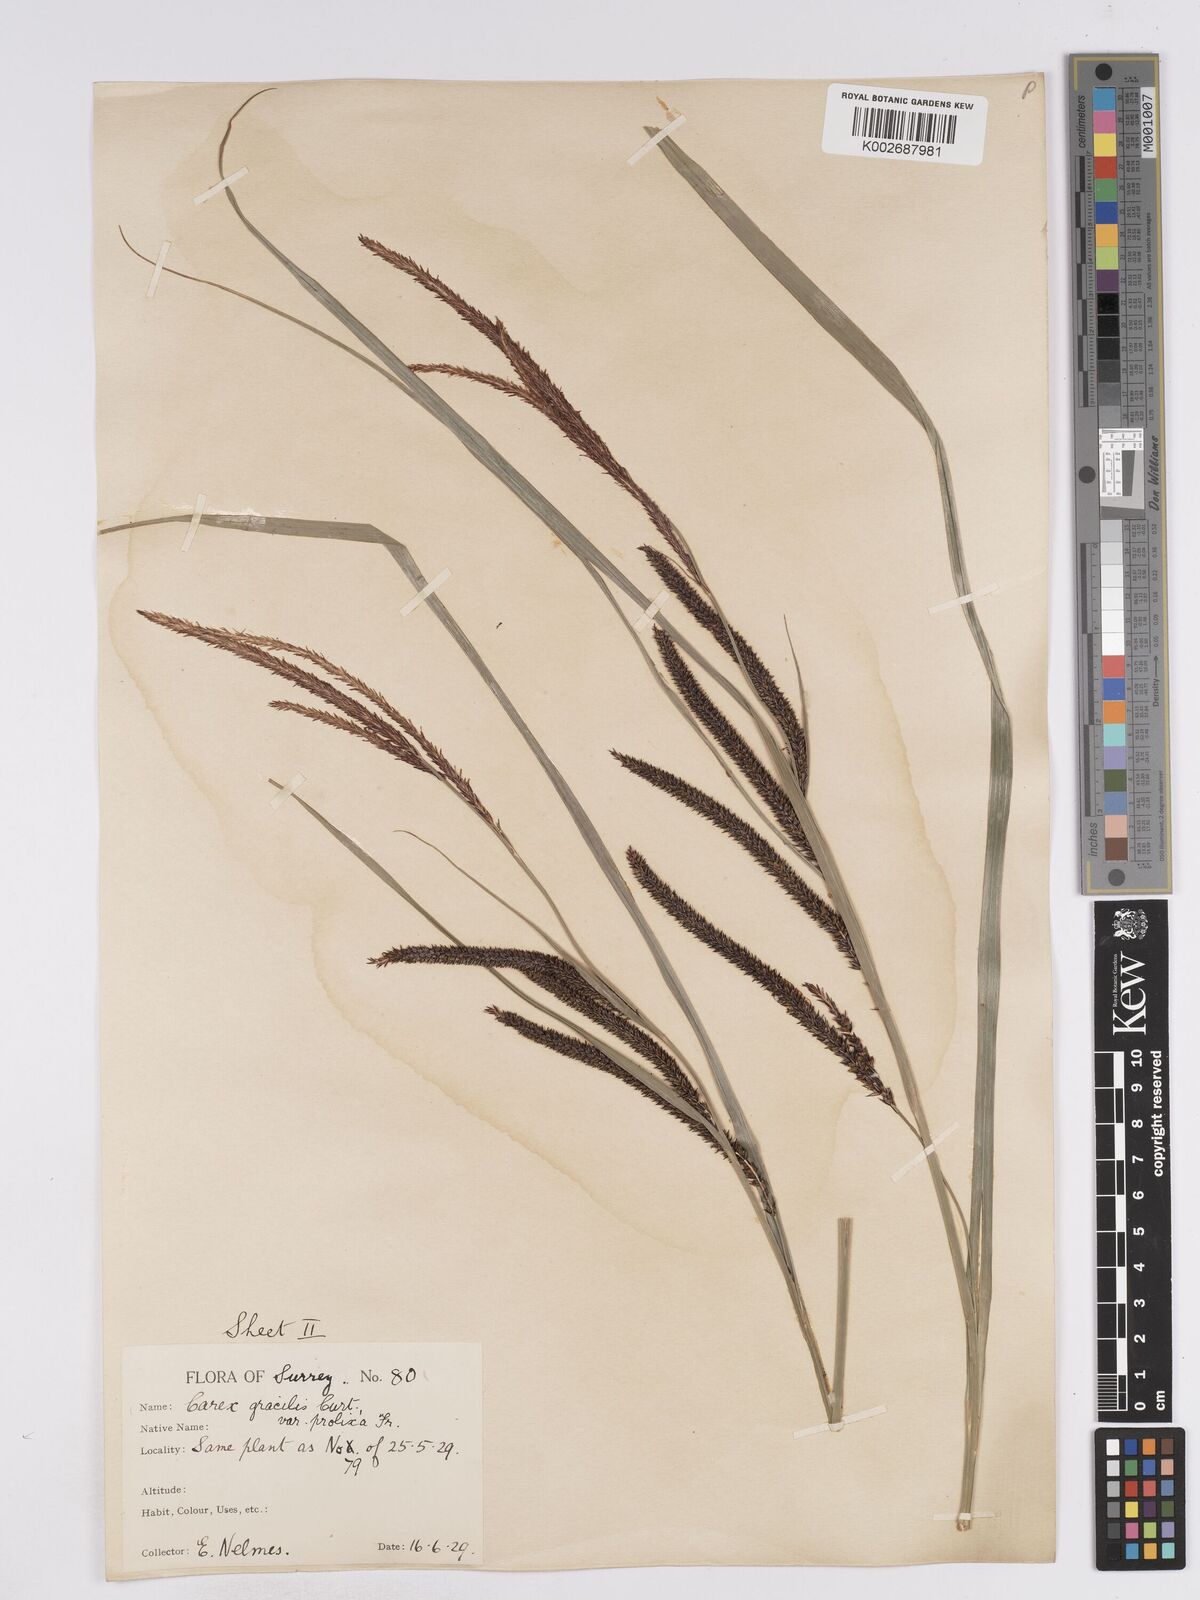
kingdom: Plantae
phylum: Tracheophyta
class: Liliopsida
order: Poales
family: Cyperaceae
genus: Carex
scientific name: Carex acuta
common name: Slender tufted-sedge
